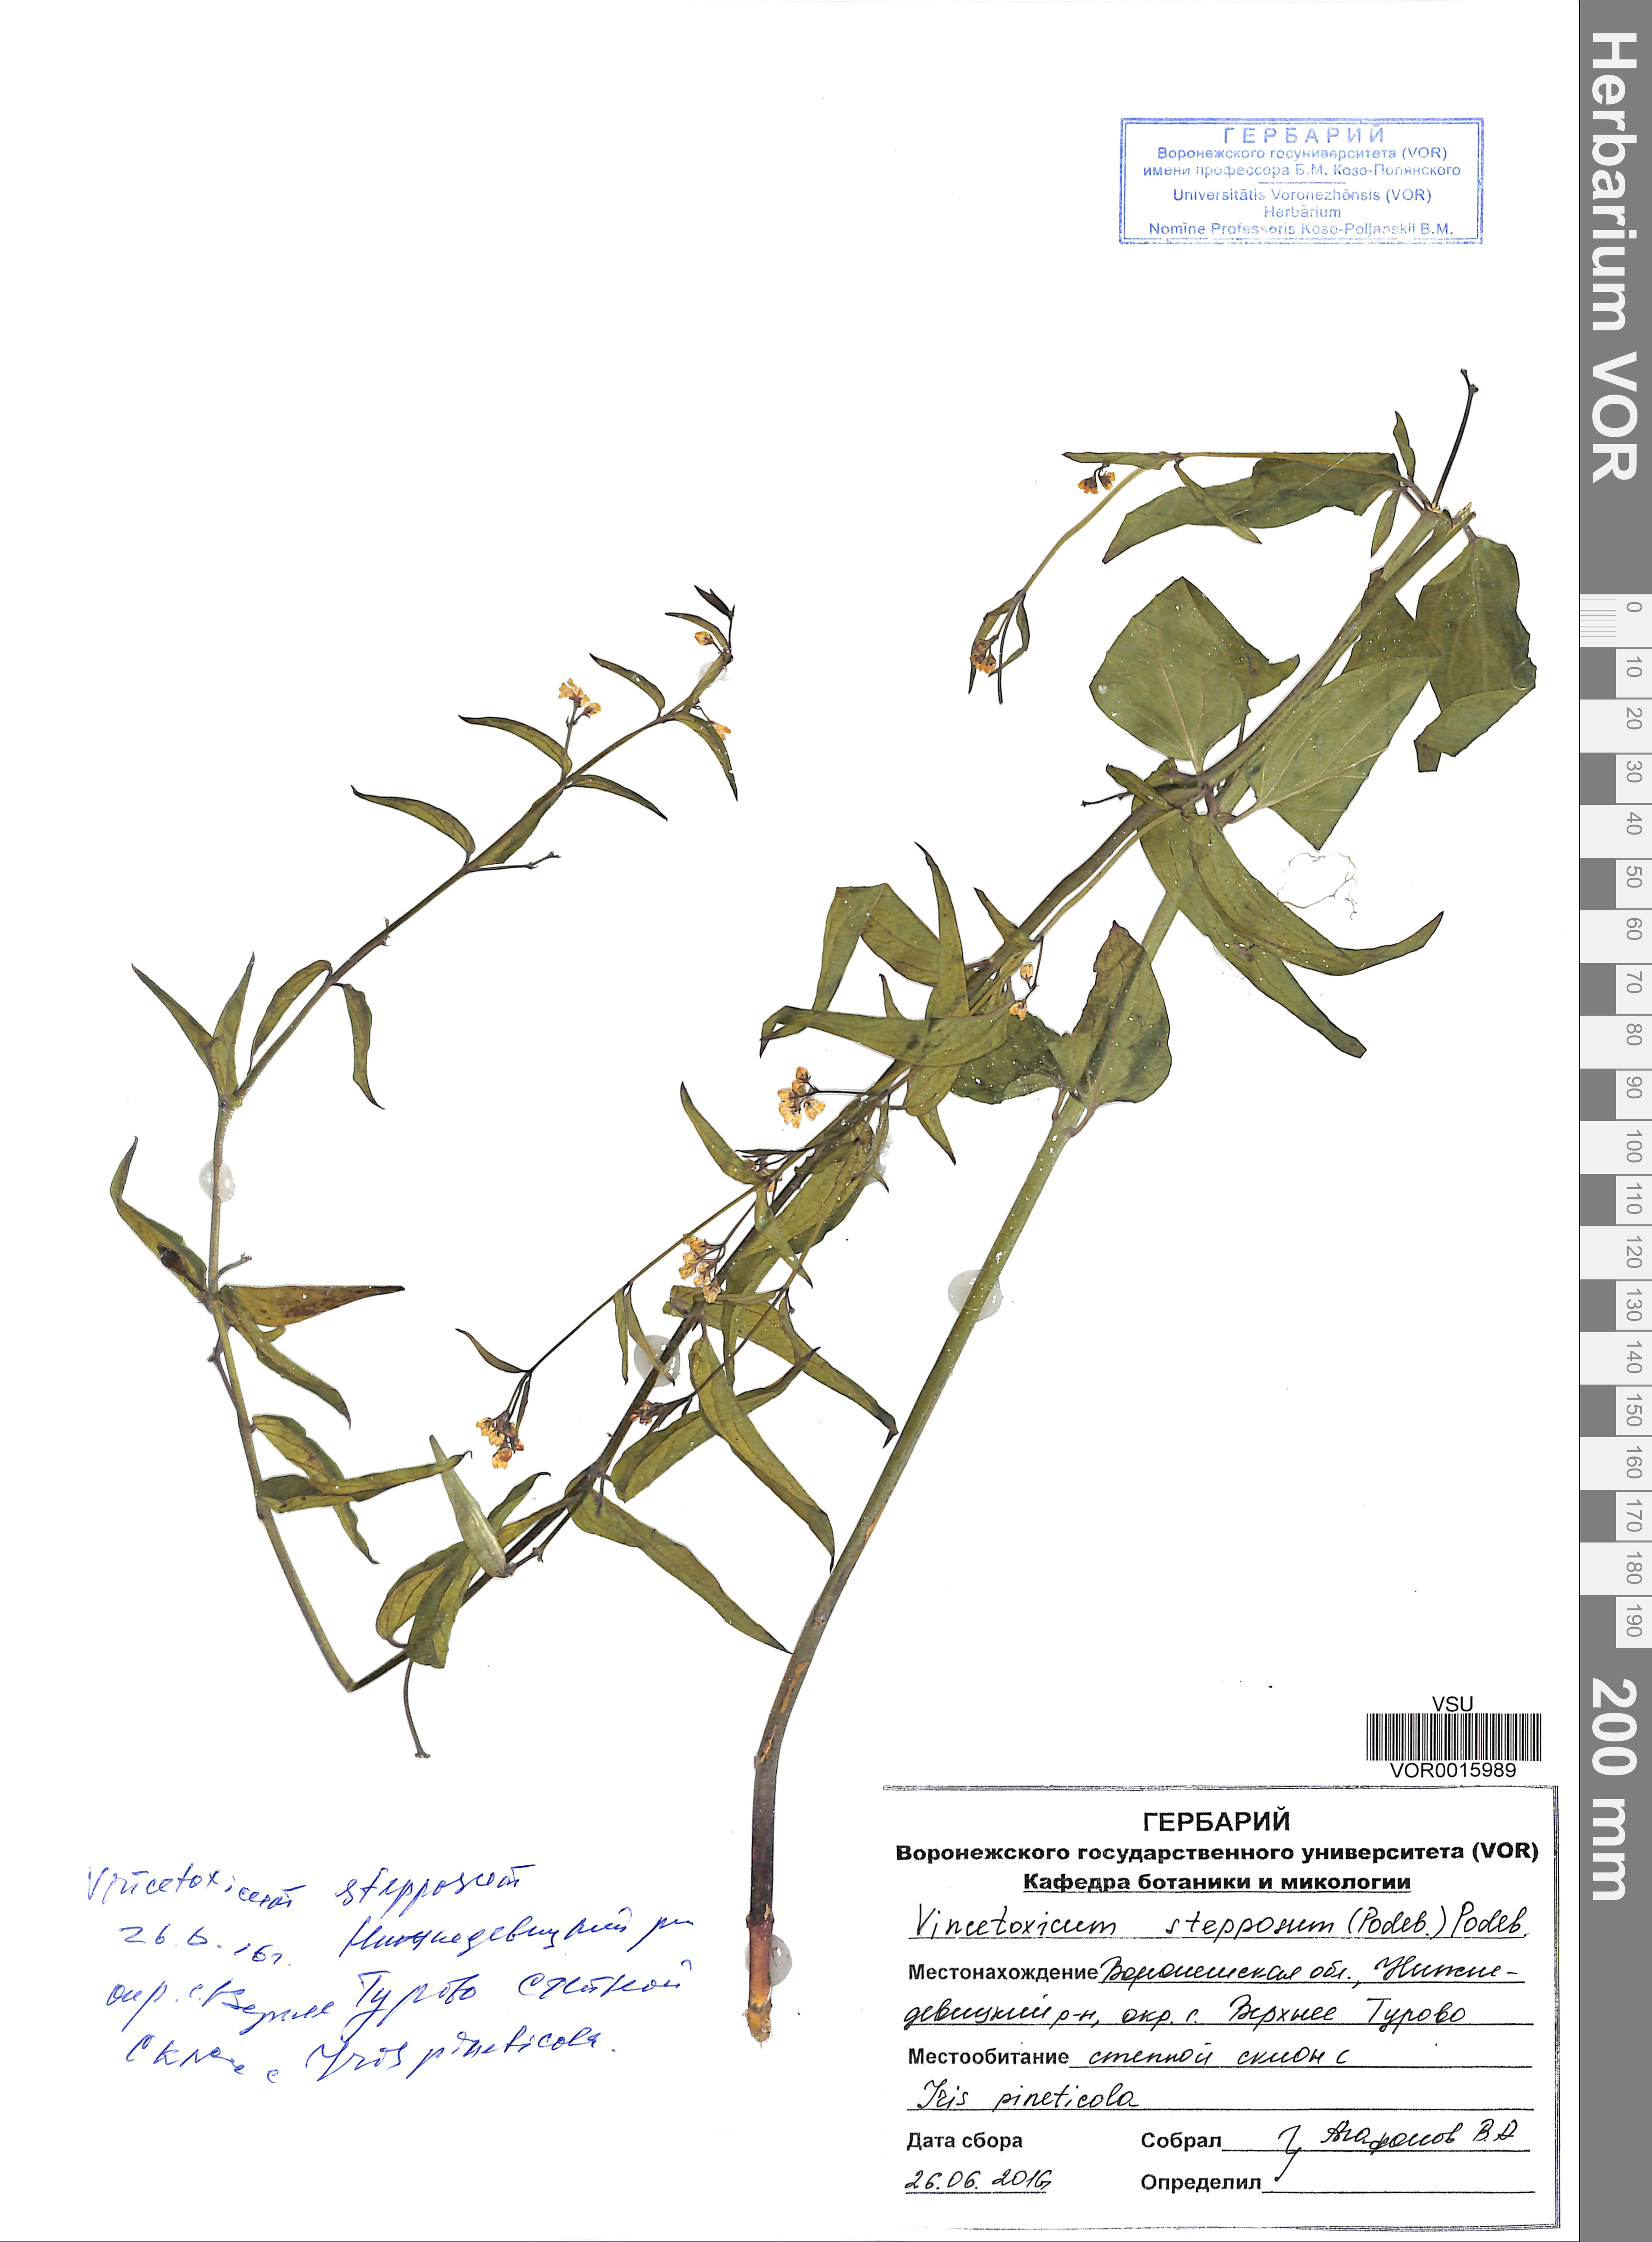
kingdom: Plantae
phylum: Tracheophyta
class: Magnoliopsida
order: Gentianales
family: Apocynaceae
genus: Vincetoxicum
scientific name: Vincetoxicum hirundinaria
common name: White swallowwort
